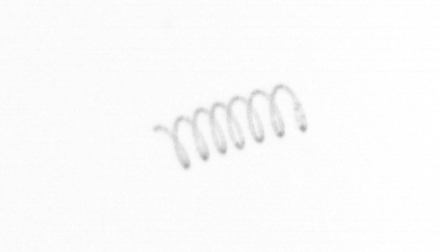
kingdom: Chromista
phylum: Ochrophyta
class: Bacillariophyceae
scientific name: Bacillariophyceae
